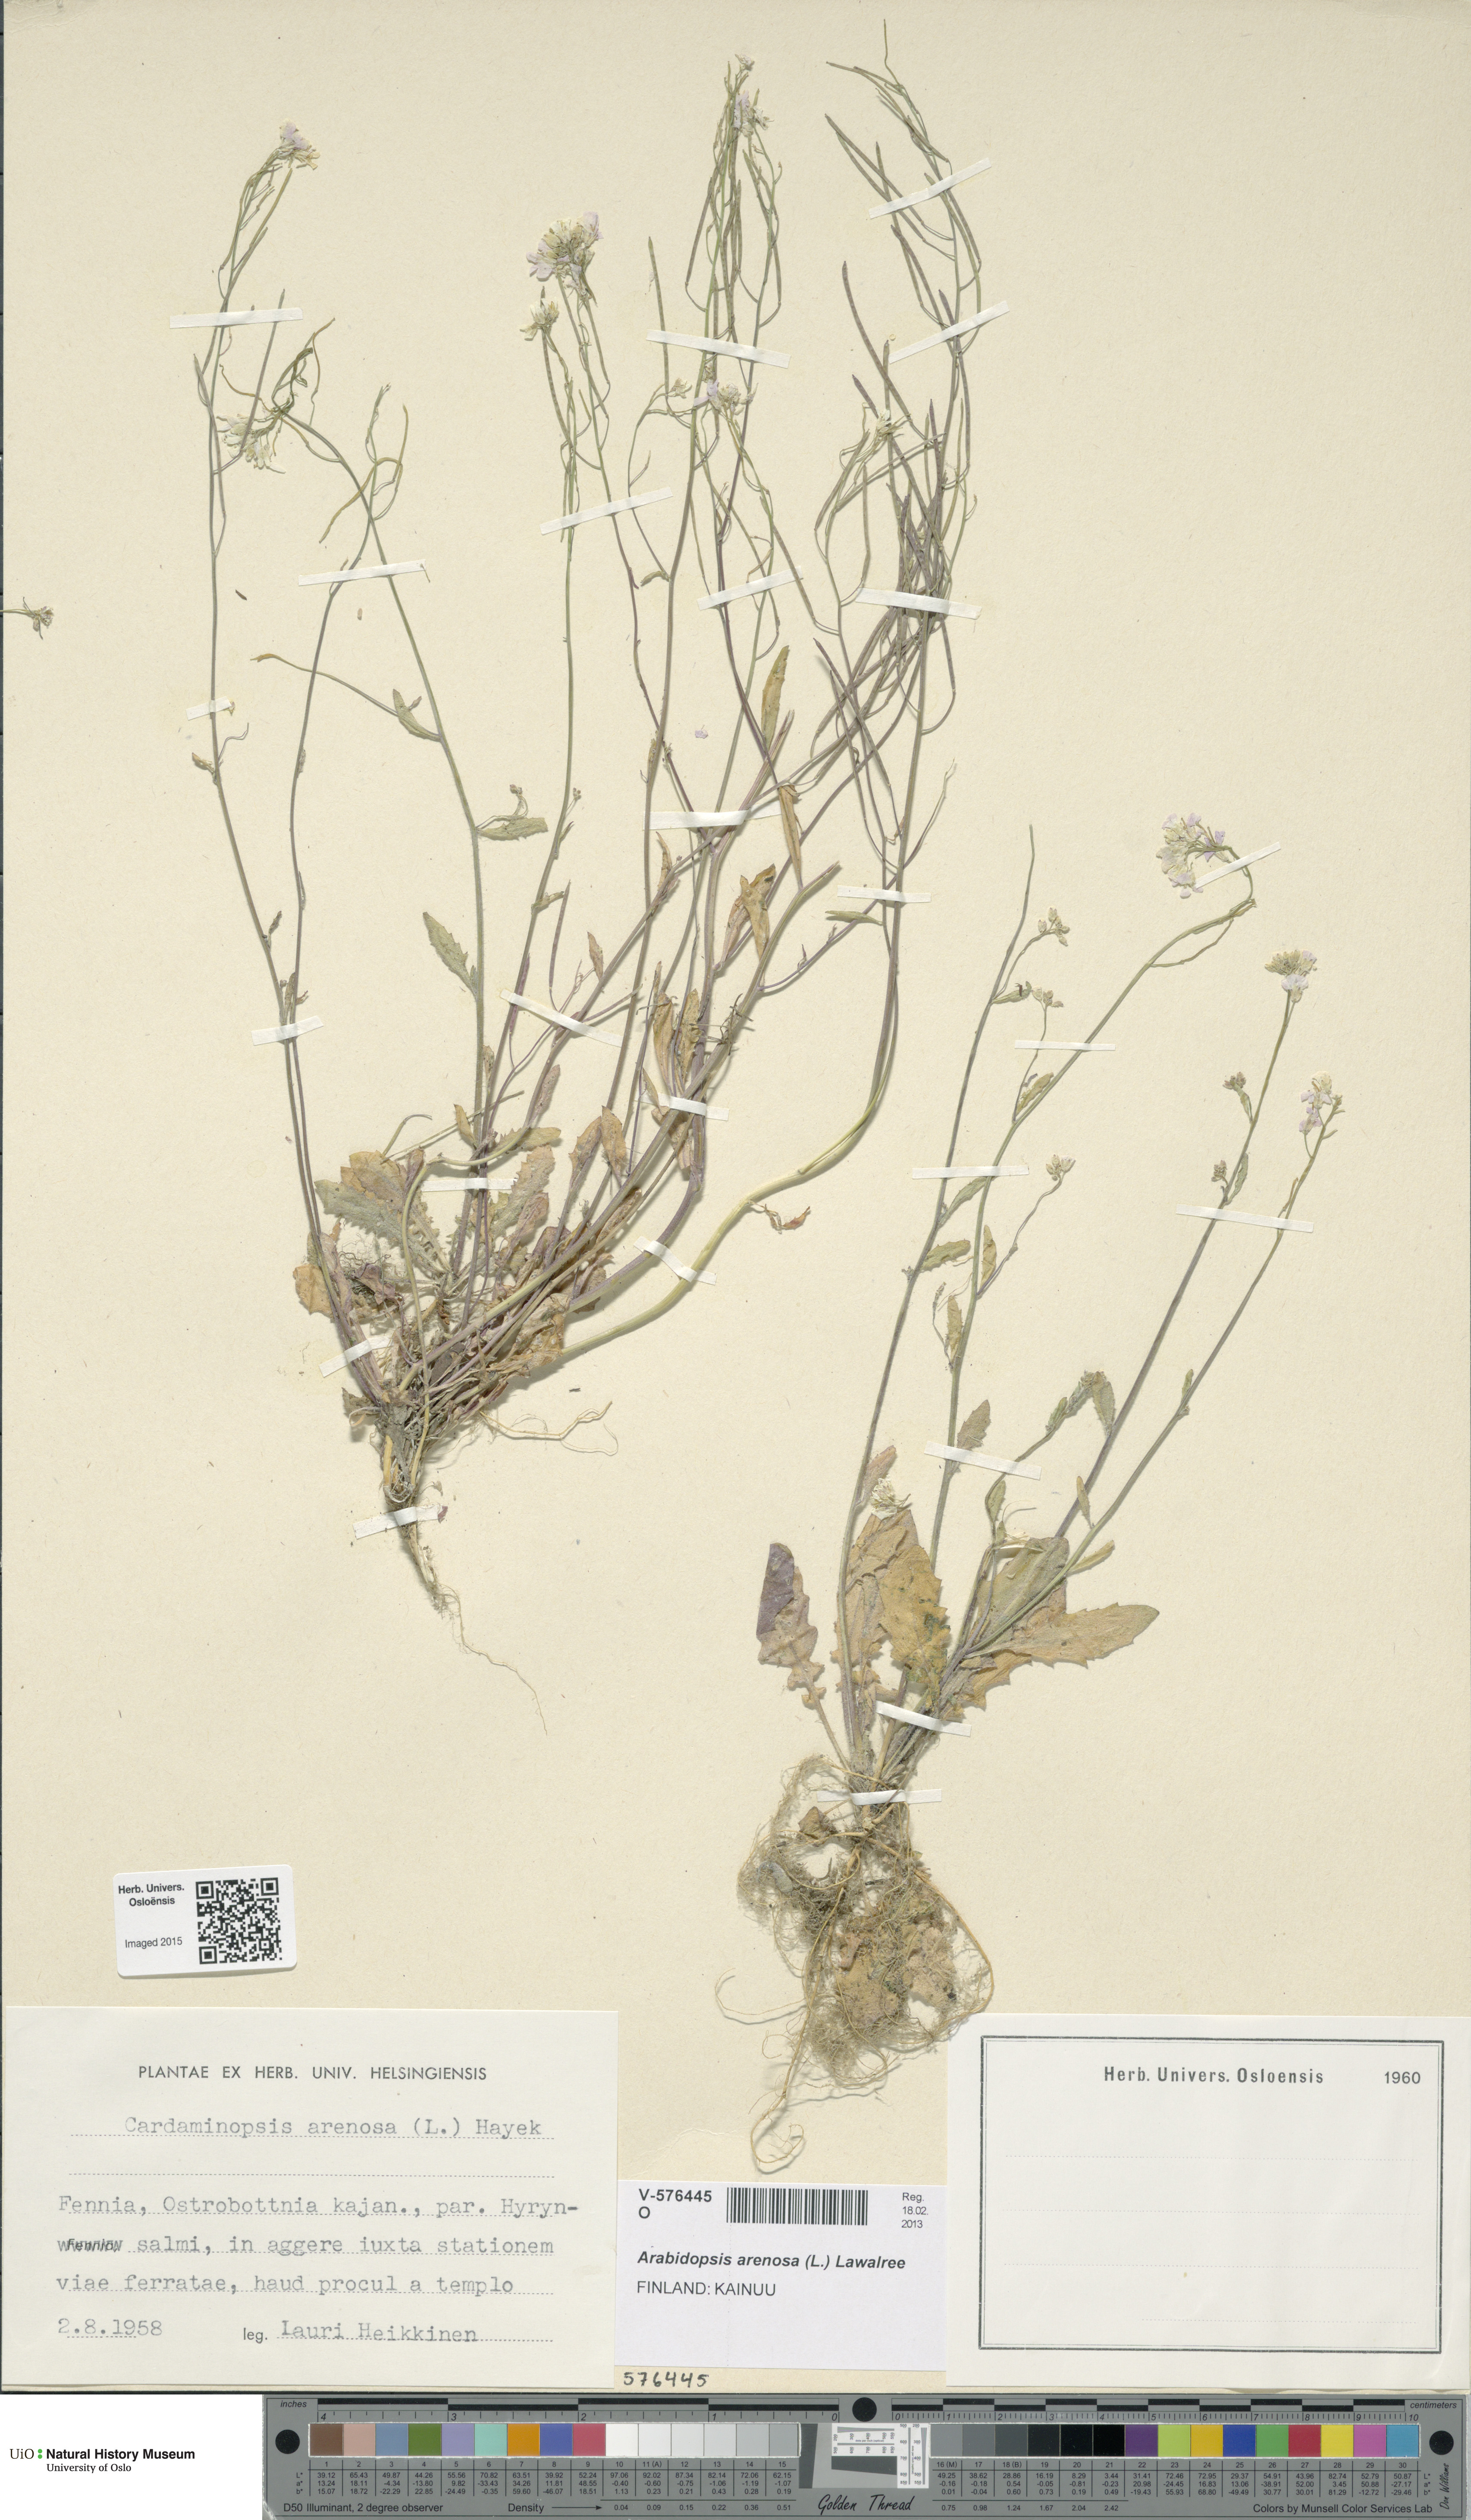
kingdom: Plantae
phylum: Tracheophyta
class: Magnoliopsida
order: Brassicales
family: Brassicaceae
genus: Arabidopsis
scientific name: Arabidopsis arenosa
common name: Sand rock-cress
